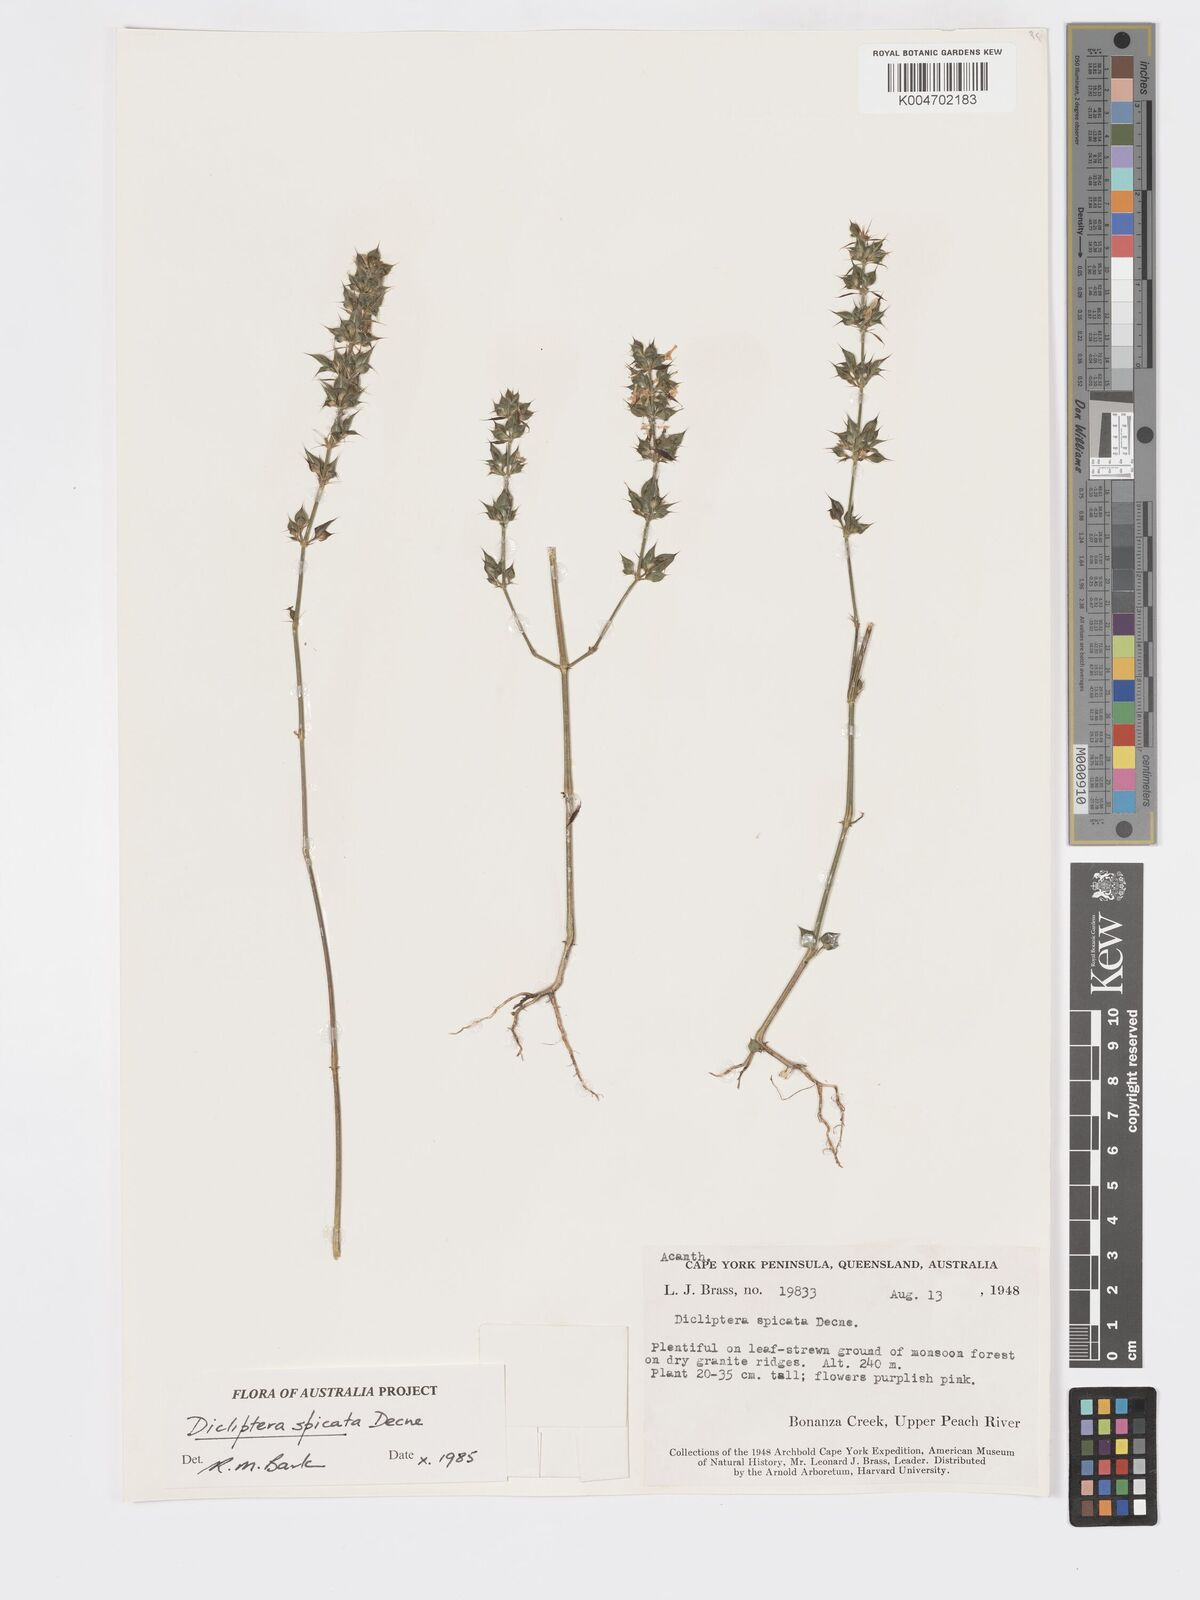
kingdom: Plantae
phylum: Tracheophyta
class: Magnoliopsida
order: Lamiales
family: Acanthaceae
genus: Dicliptera
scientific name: Dicliptera
